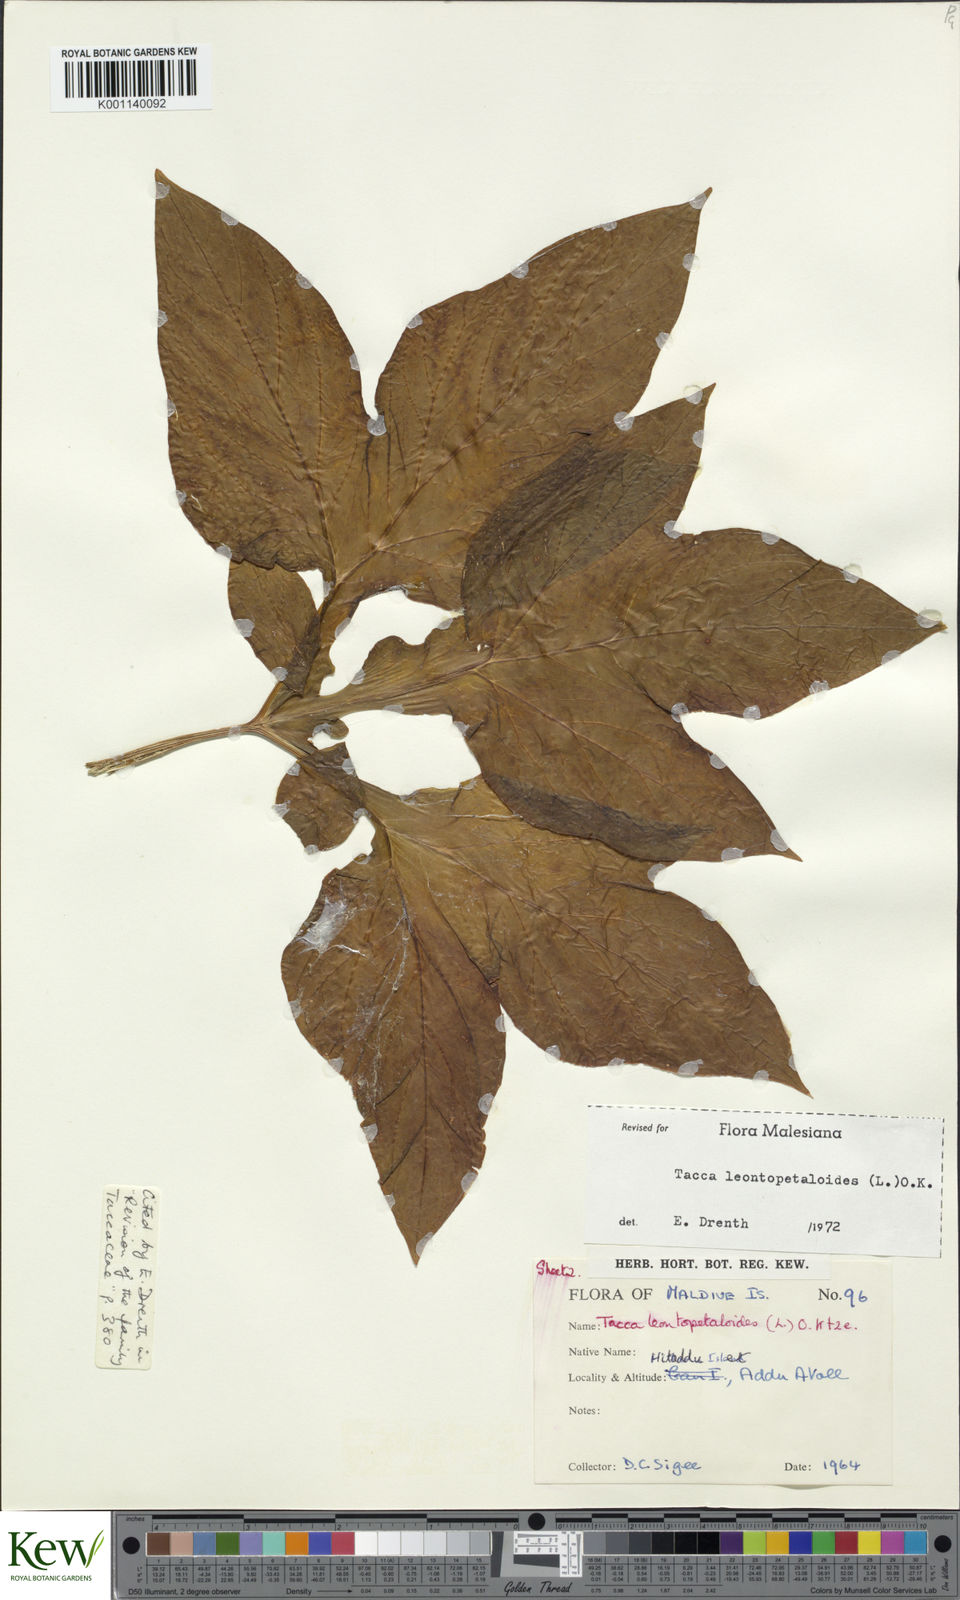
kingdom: Plantae
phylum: Tracheophyta
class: Liliopsida
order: Dioscoreales
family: Dioscoreaceae
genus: Tacca
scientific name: Tacca leontopetaloides
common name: Arrowroot
